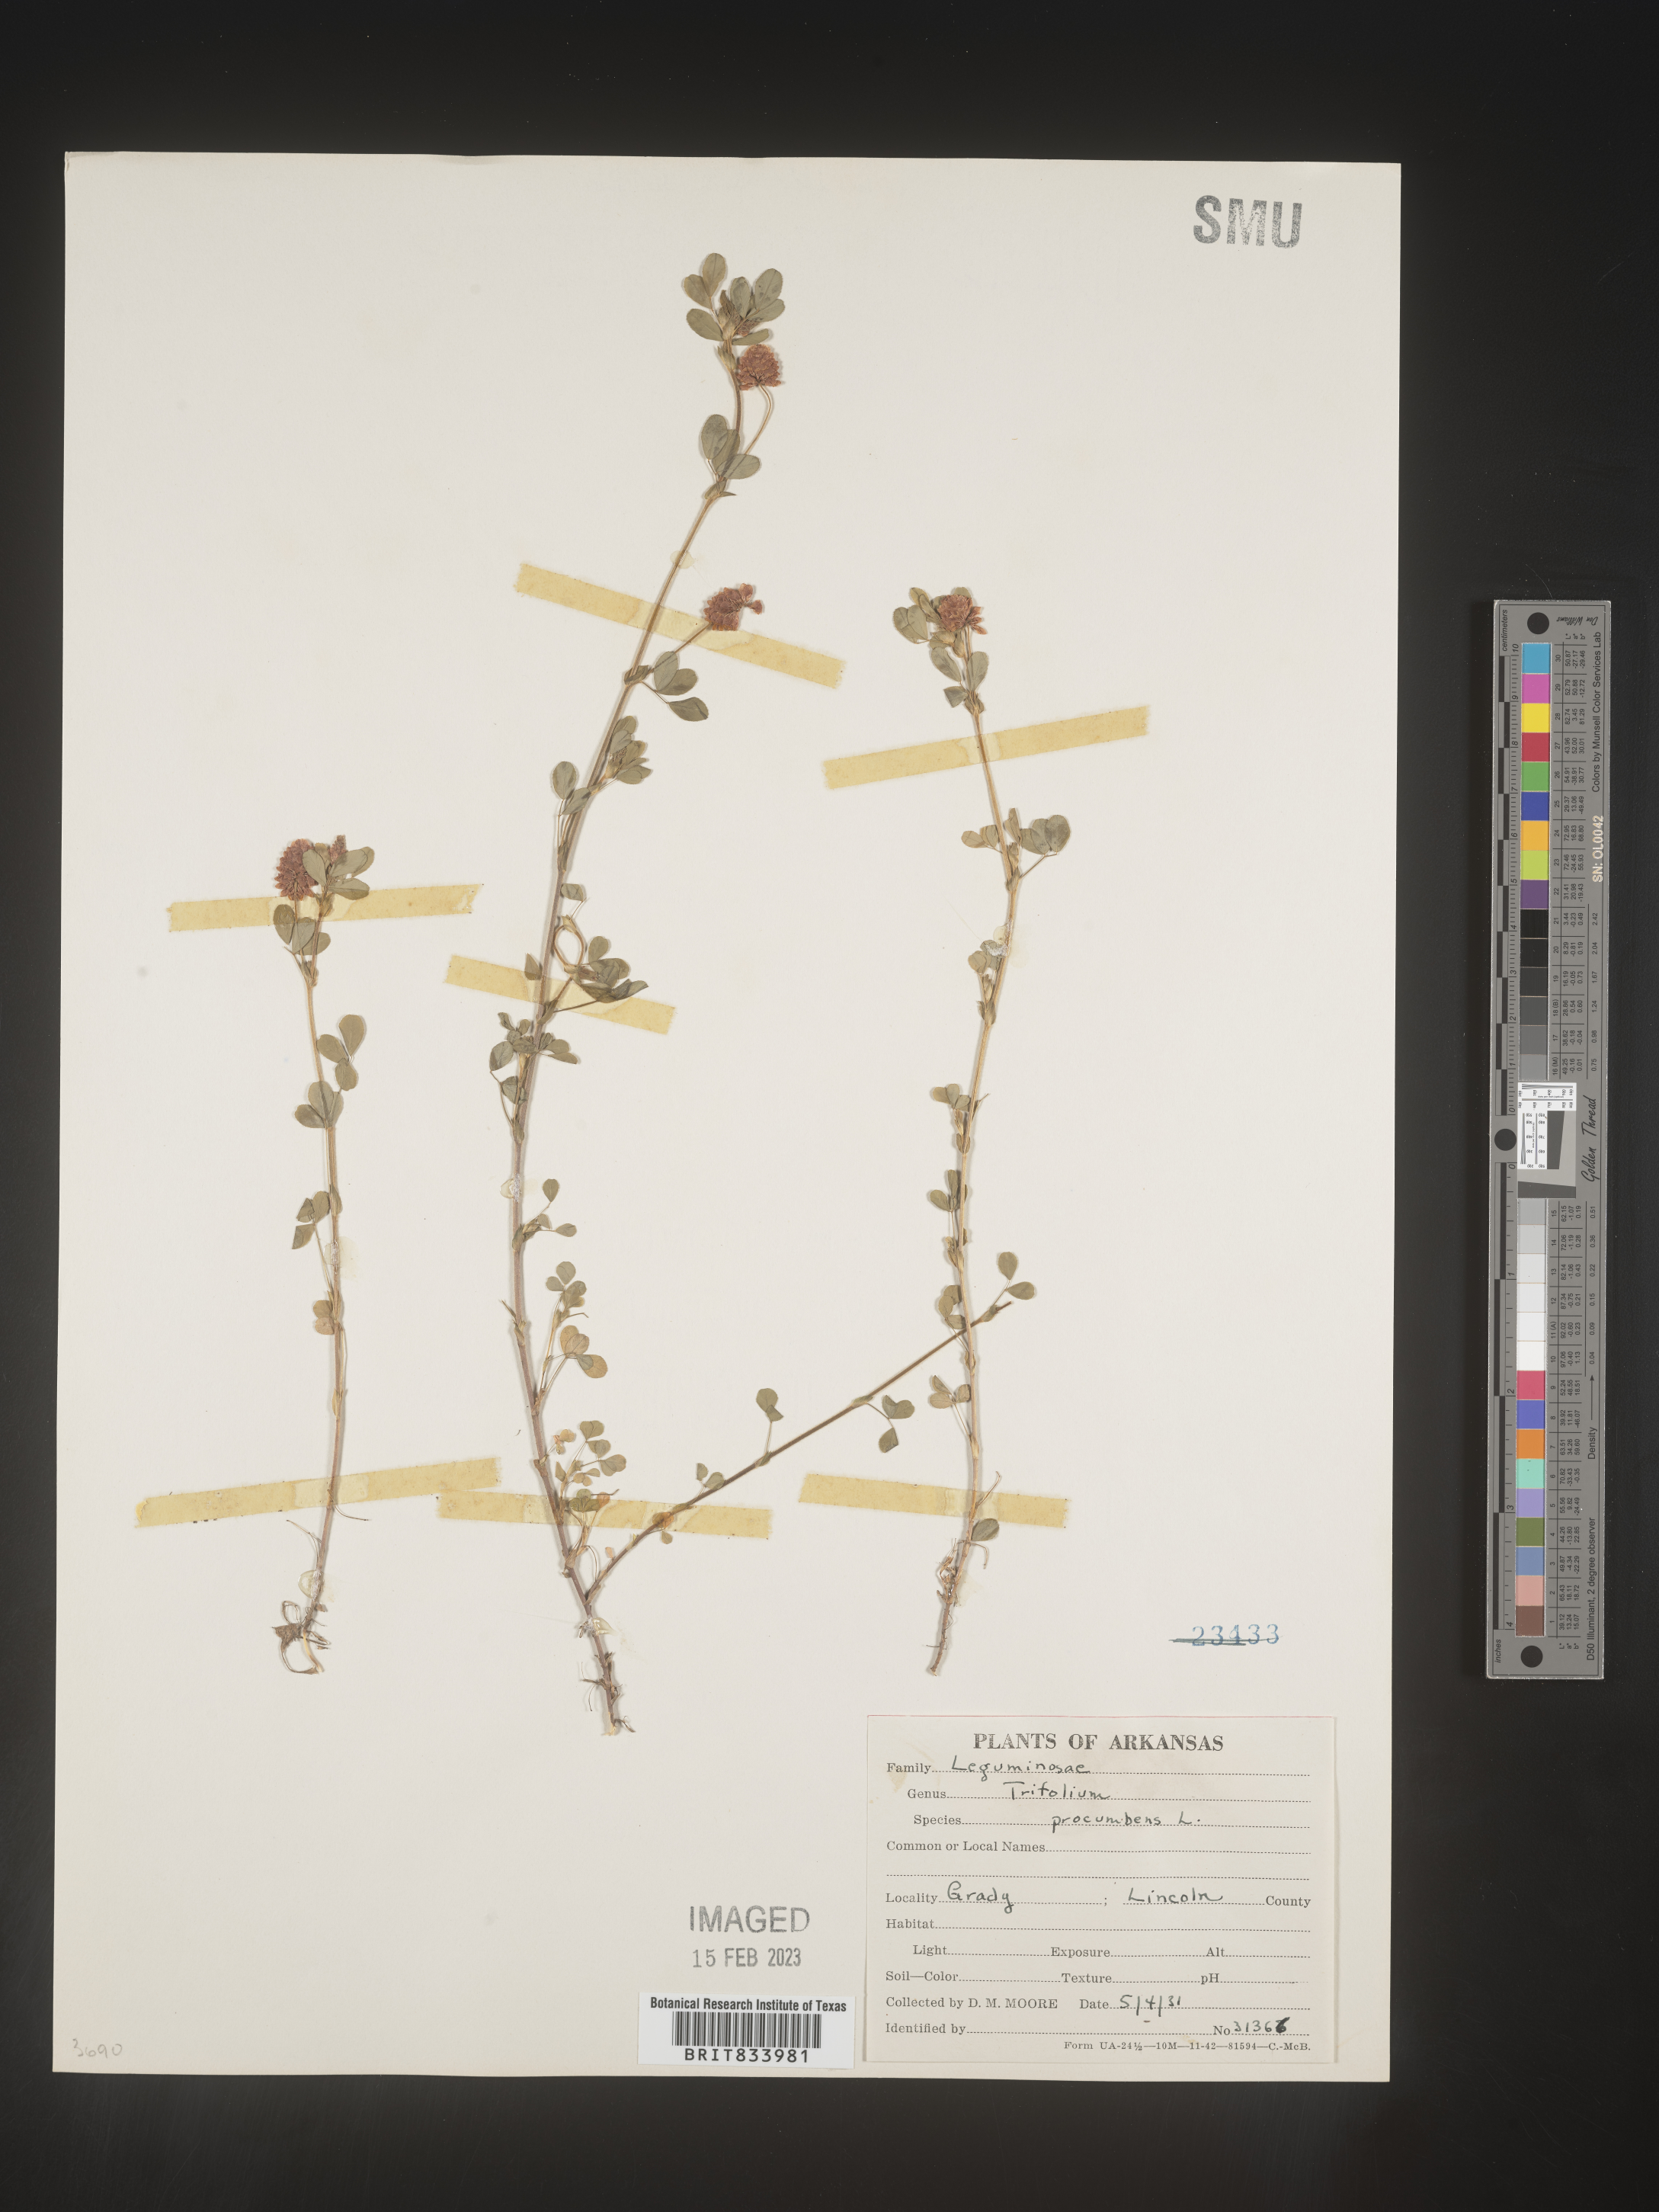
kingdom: Plantae
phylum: Tracheophyta
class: Magnoliopsida
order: Fabales
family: Fabaceae
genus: Trifolium
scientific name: Trifolium campestre
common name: Field clover
